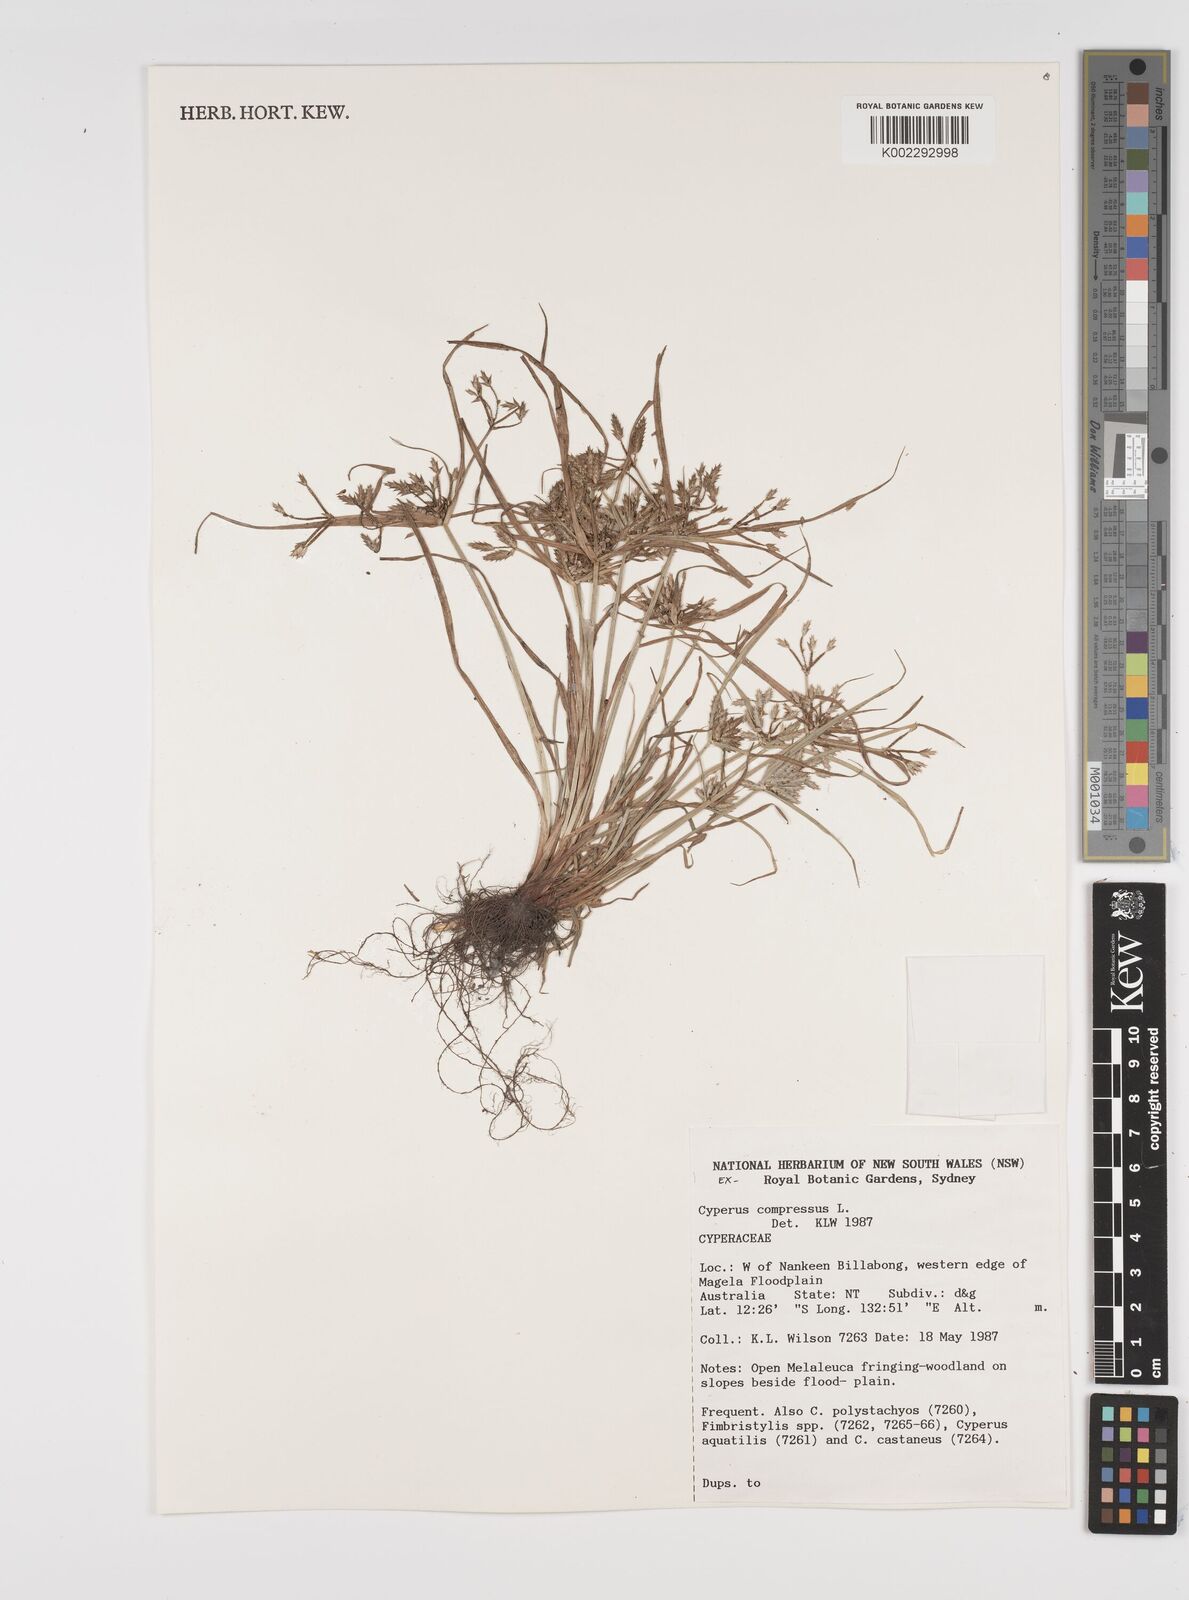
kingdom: Plantae
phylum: Tracheophyta
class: Liliopsida
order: Poales
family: Cyperaceae
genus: Cyperus
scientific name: Cyperus compressus
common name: Poorland flatsedge
